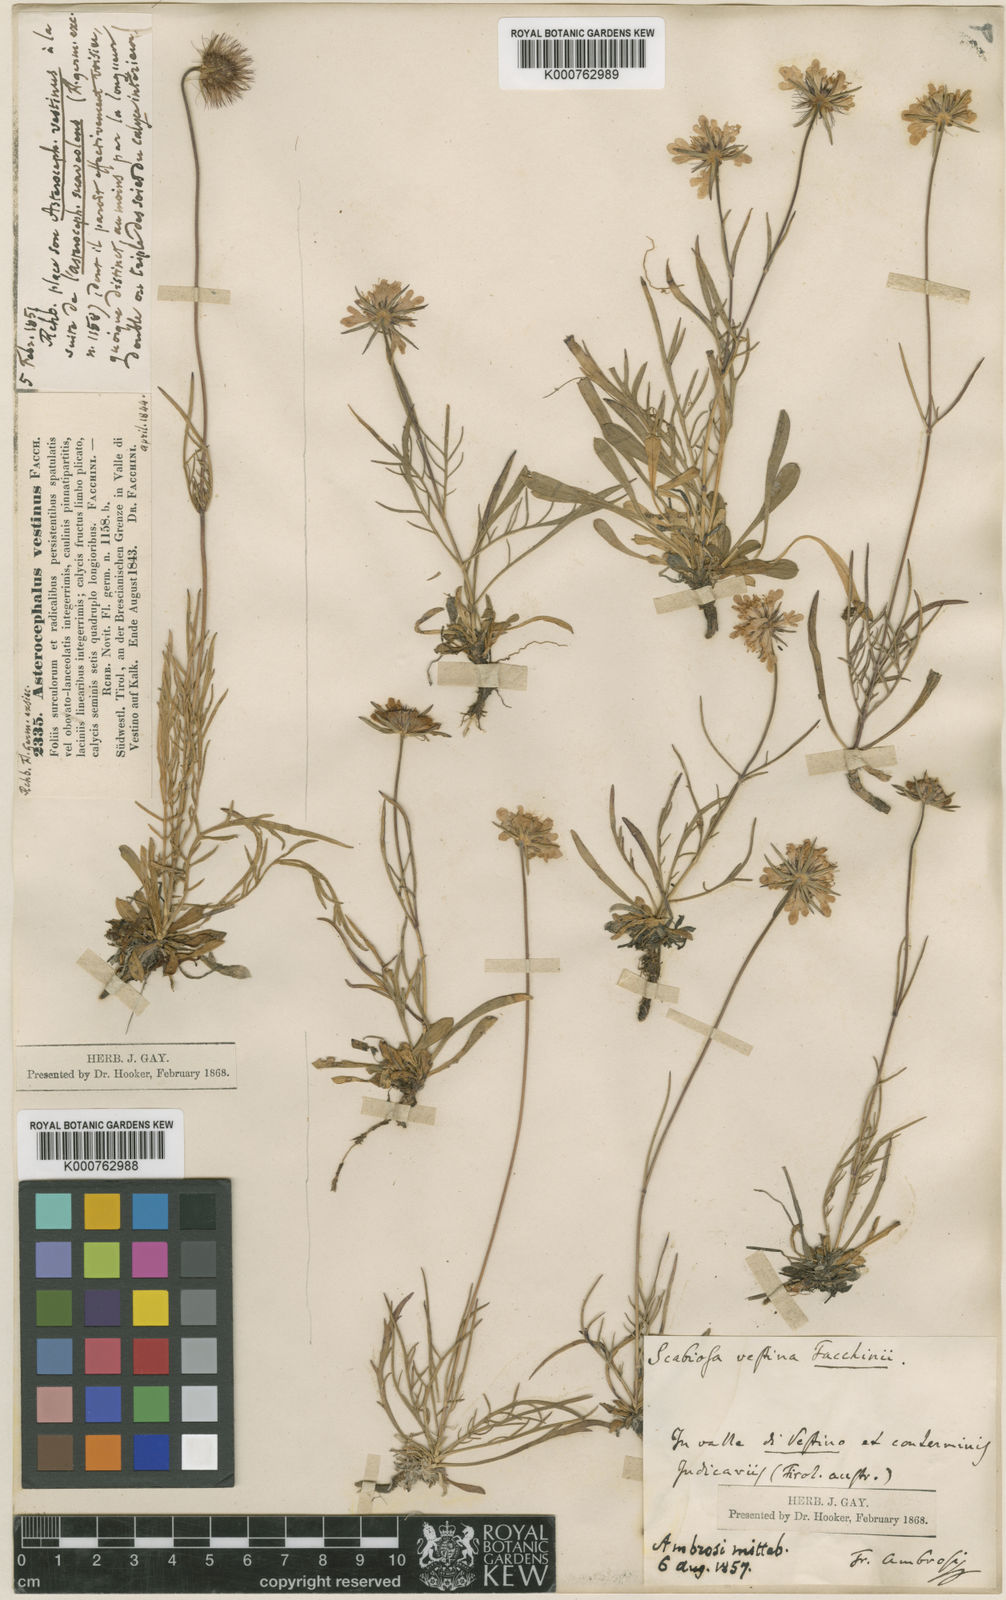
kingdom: Plantae
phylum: Tracheophyta
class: Magnoliopsida
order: Dipsacales
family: Caprifoliaceae
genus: Scabiosa
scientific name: Scabiosa vestina
